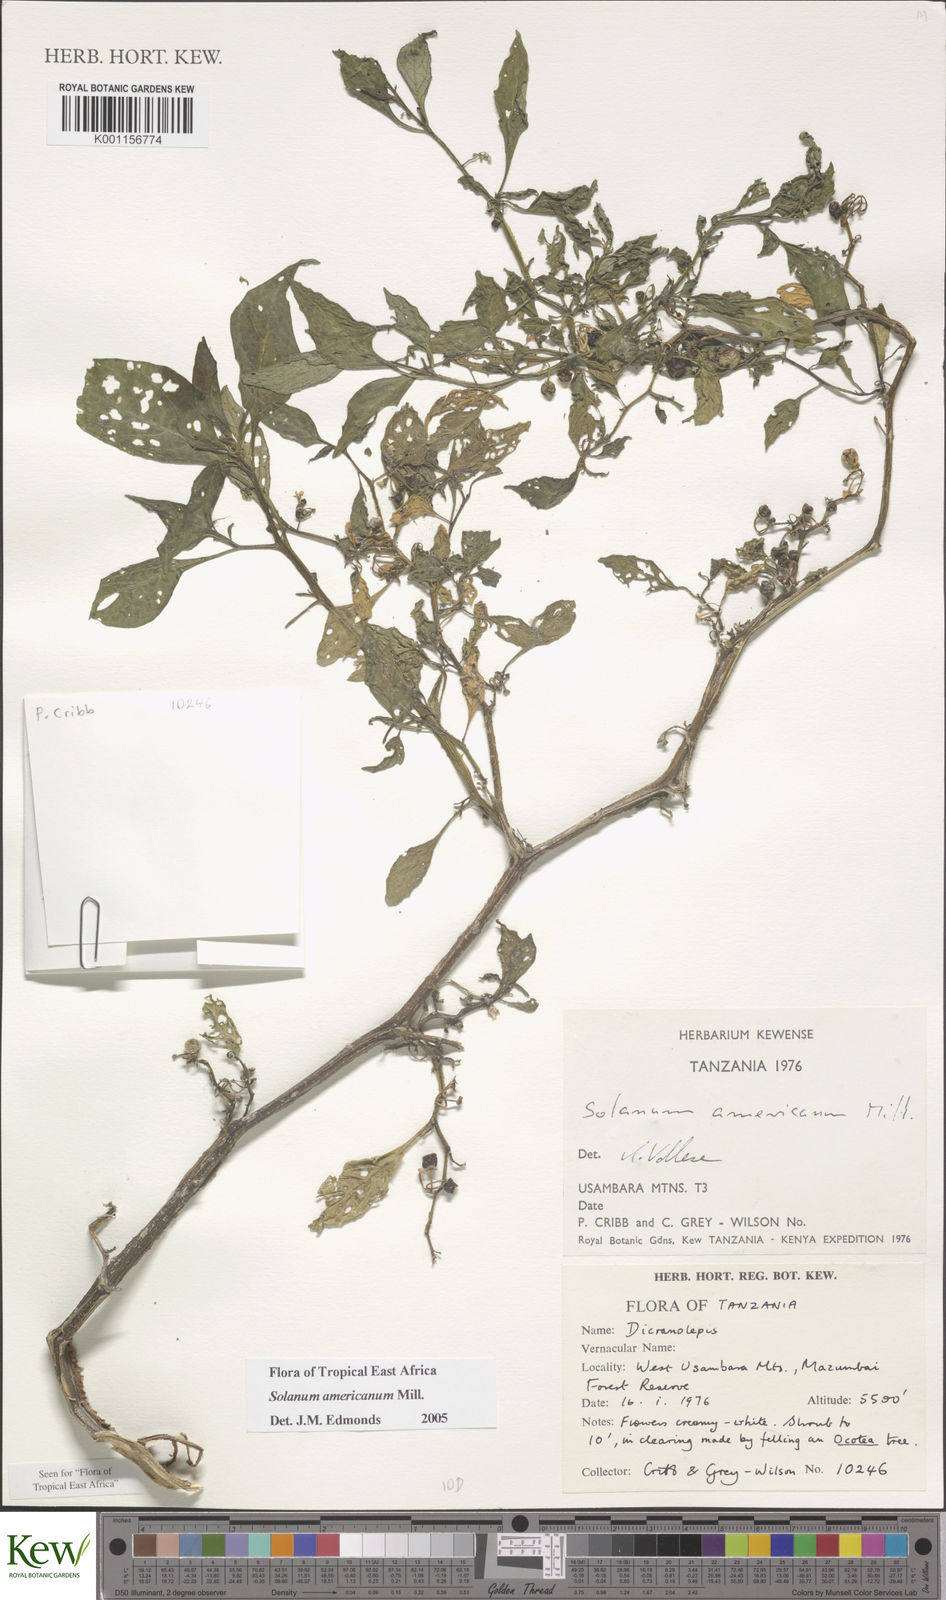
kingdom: Plantae
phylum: Tracheophyta
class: Magnoliopsida
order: Solanales
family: Solanaceae
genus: Solanum
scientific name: Solanum americanum
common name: American black nightshade
